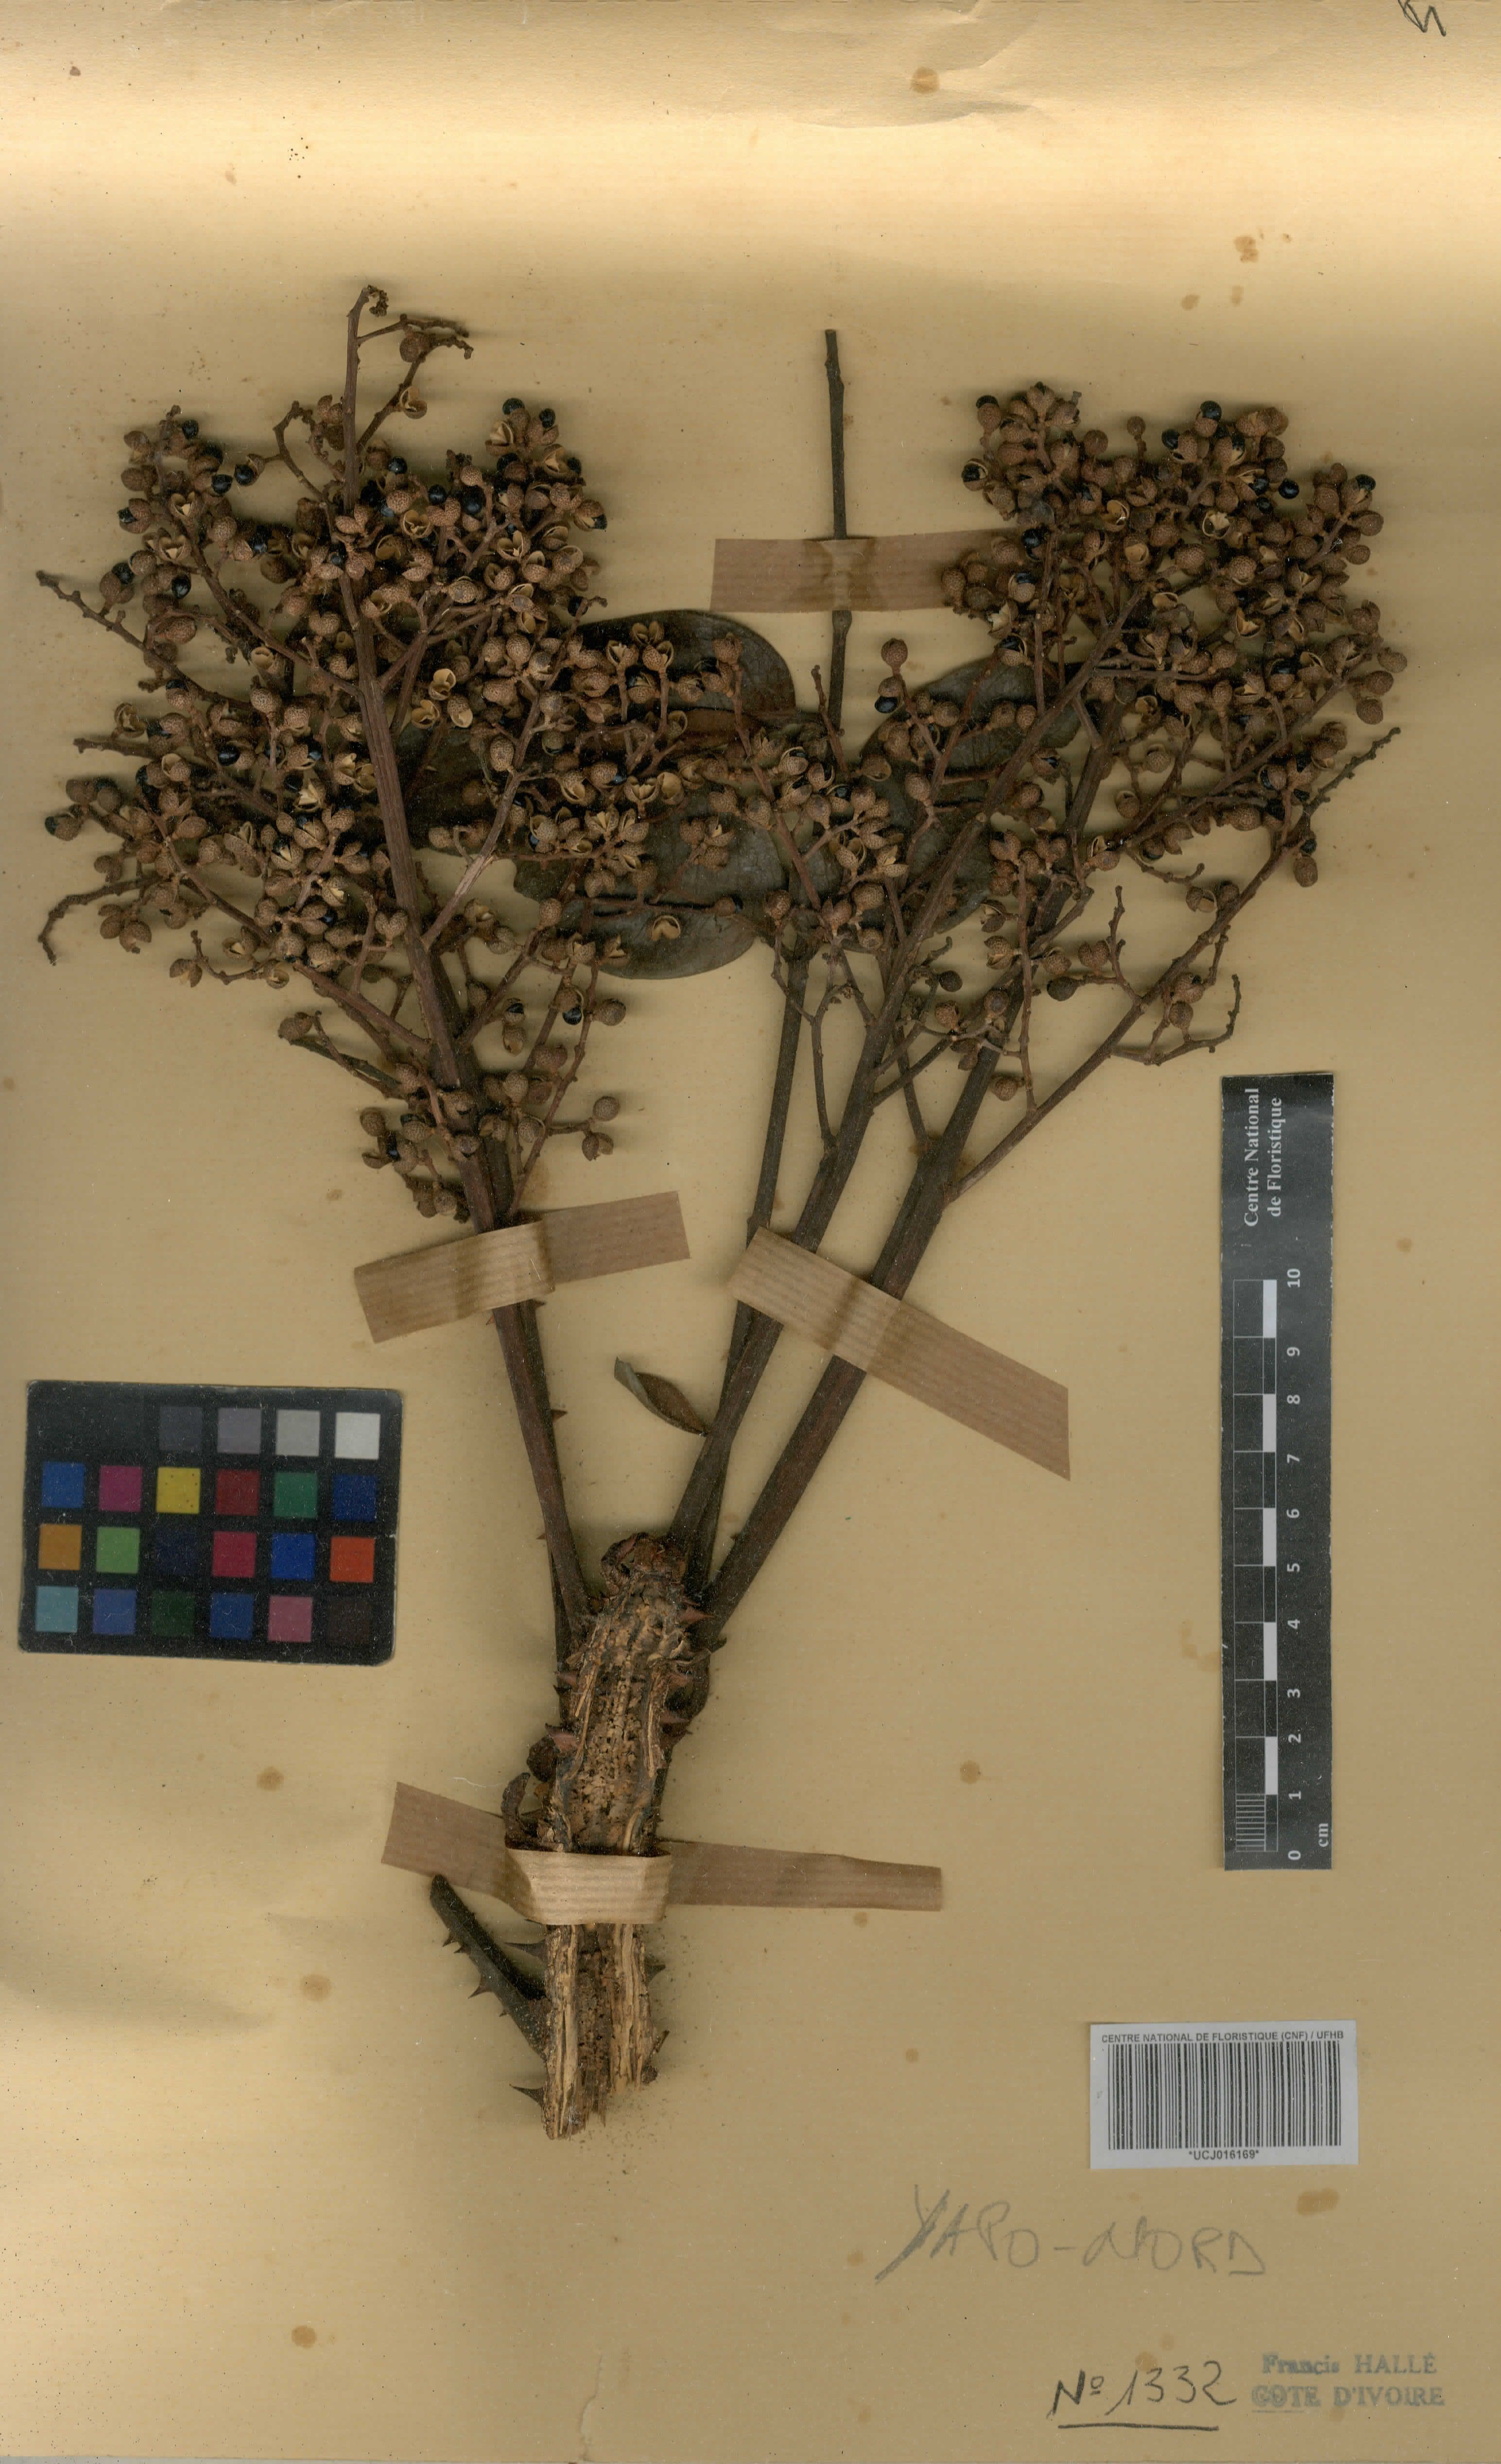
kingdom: Plantae
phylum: Tracheophyta
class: Magnoliopsida
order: Sapindales
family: Rutaceae
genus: Zanthoxylum
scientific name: Zanthoxylum gilletii
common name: African satinwood
